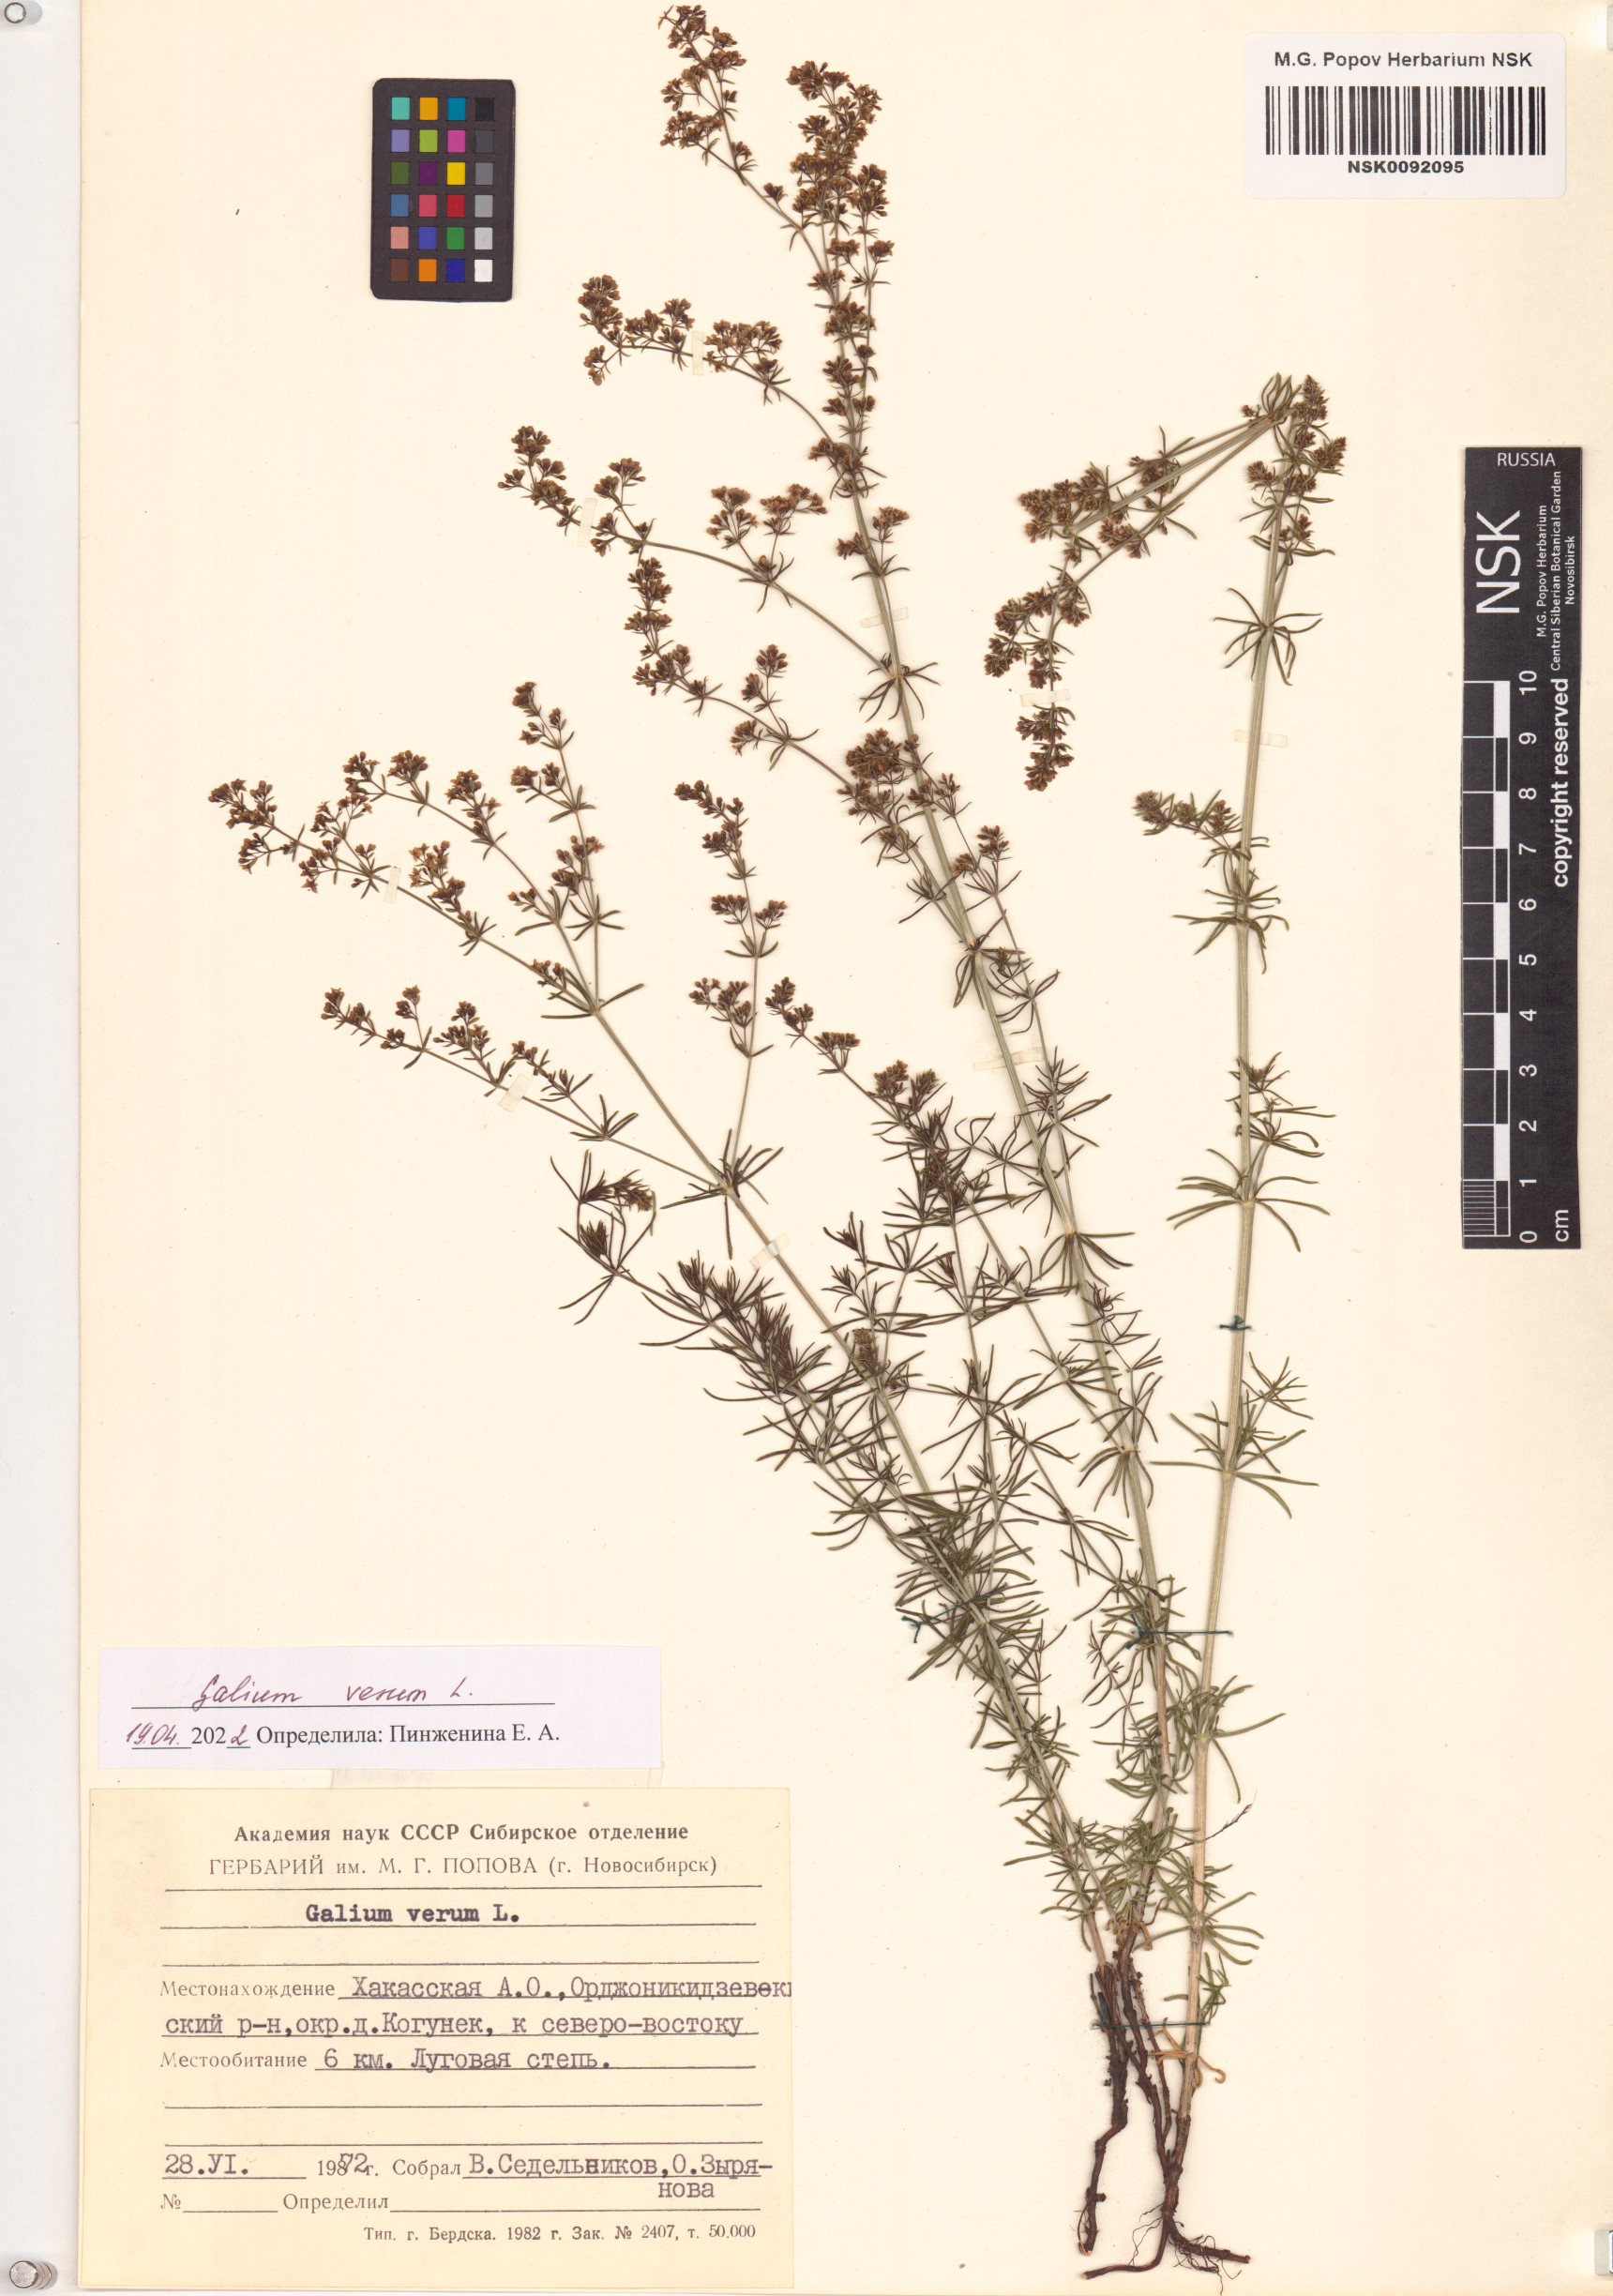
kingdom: Plantae
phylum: Tracheophyta
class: Magnoliopsida
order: Gentianales
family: Rubiaceae
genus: Galium
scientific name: Galium verum
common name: Lady's bedstraw
